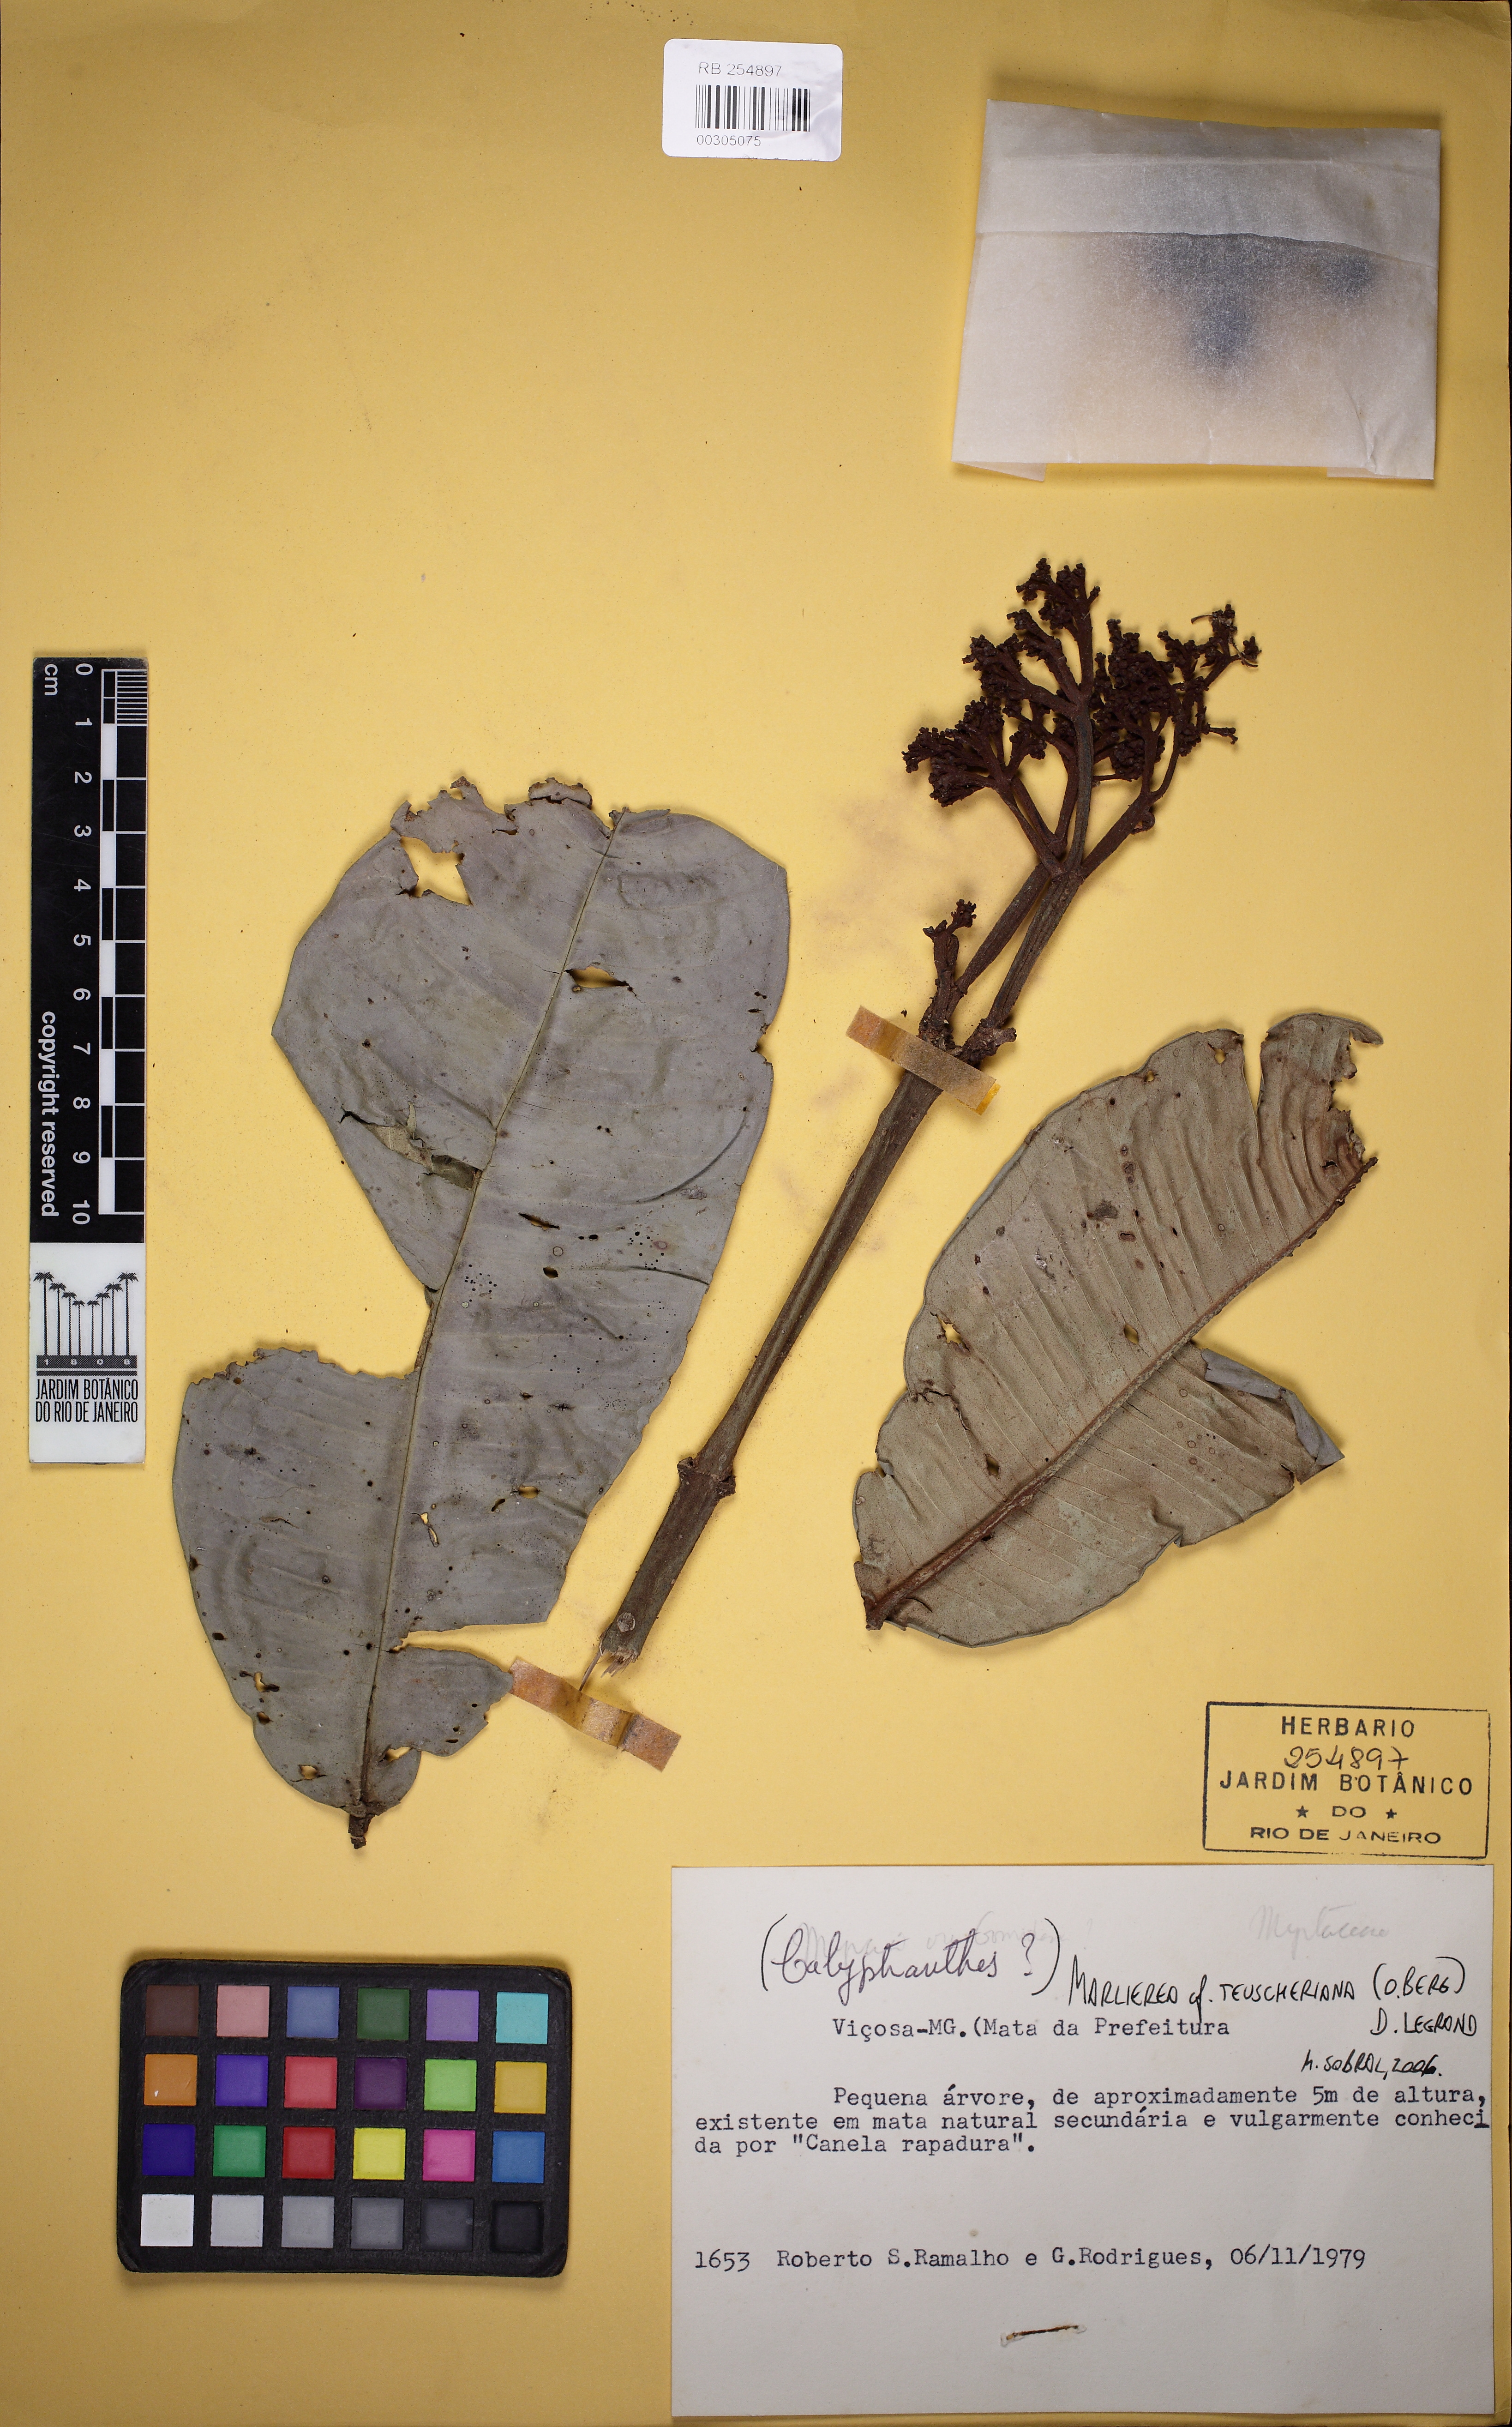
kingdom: Plantae
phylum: Tracheophyta
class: Magnoliopsida
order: Myrtales
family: Myrtaceae
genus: Myrcia
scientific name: Myrcia teuscheriana
